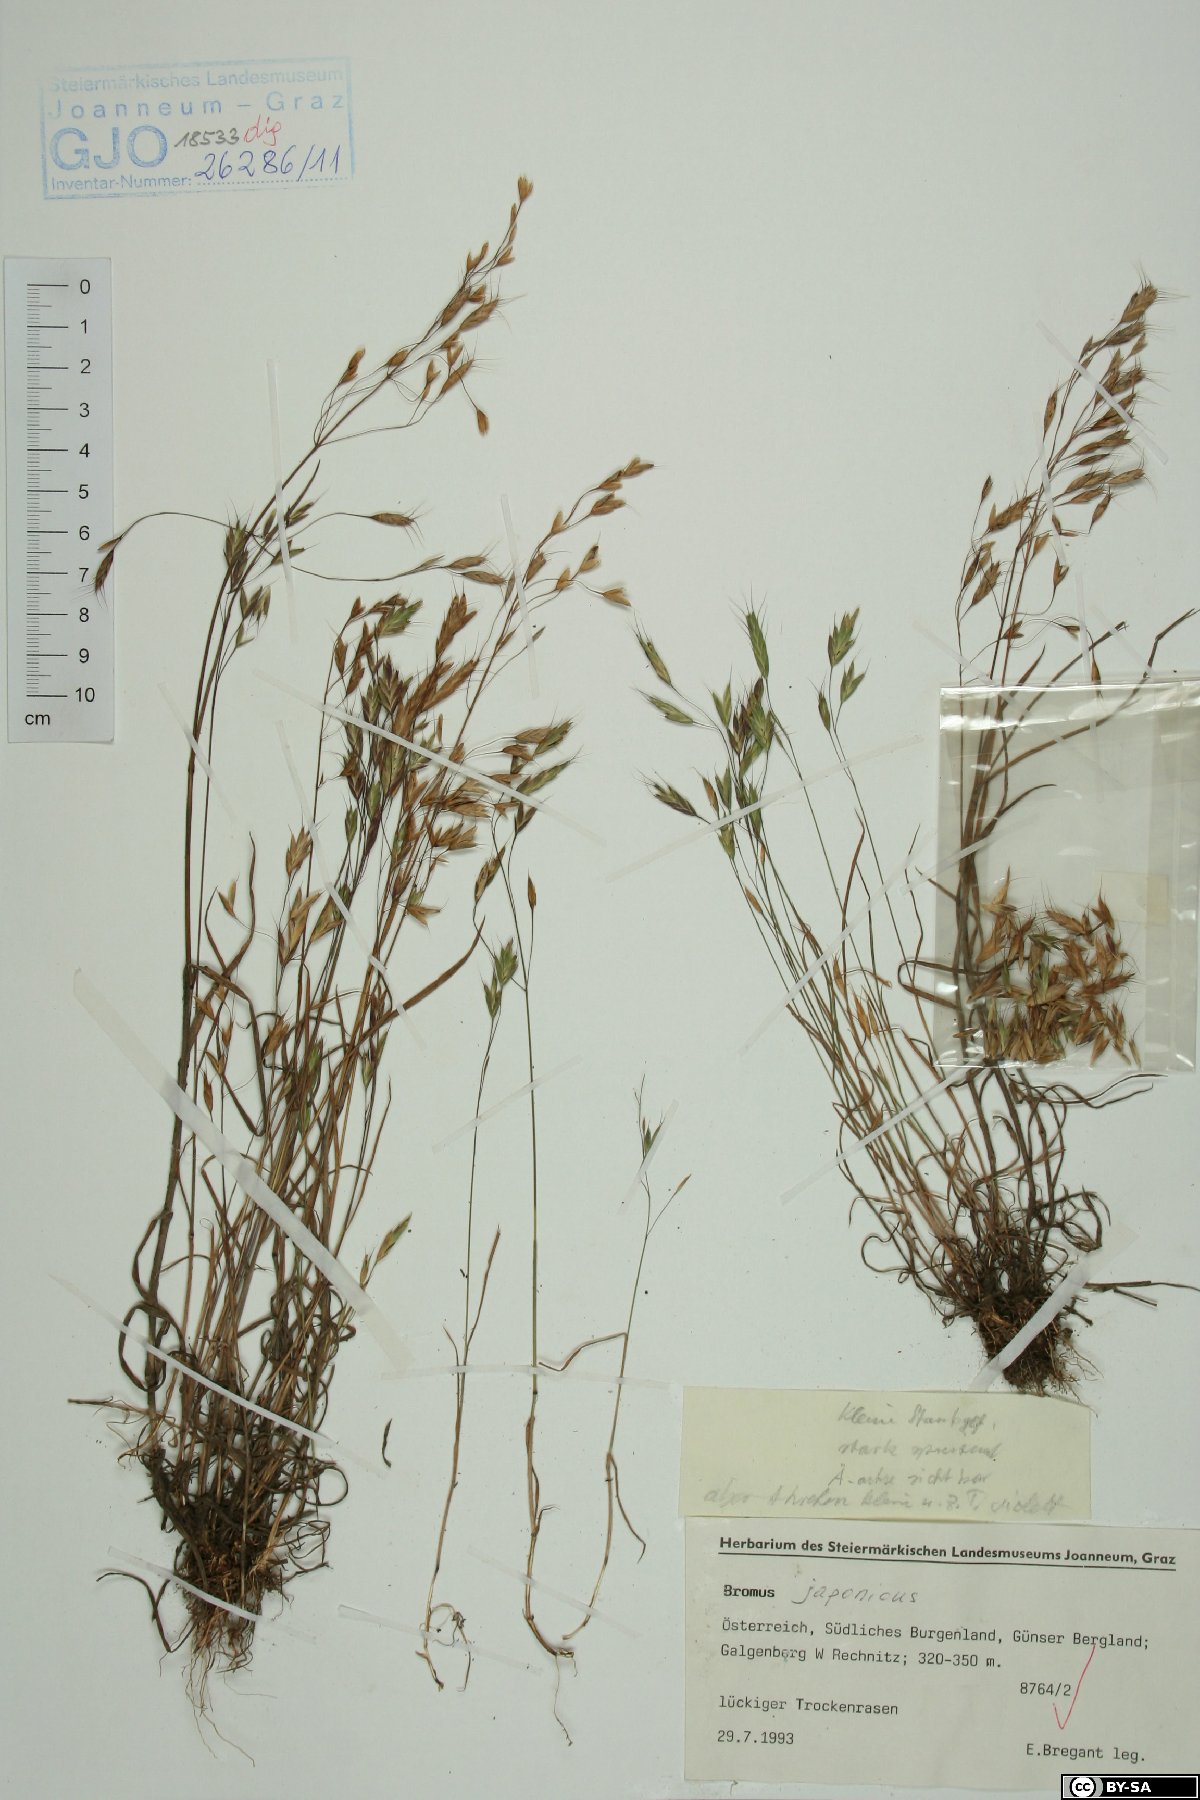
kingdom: Plantae
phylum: Tracheophyta
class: Liliopsida
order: Poales
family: Poaceae
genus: Bromus
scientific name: Bromus japonicus
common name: Japanese brome
